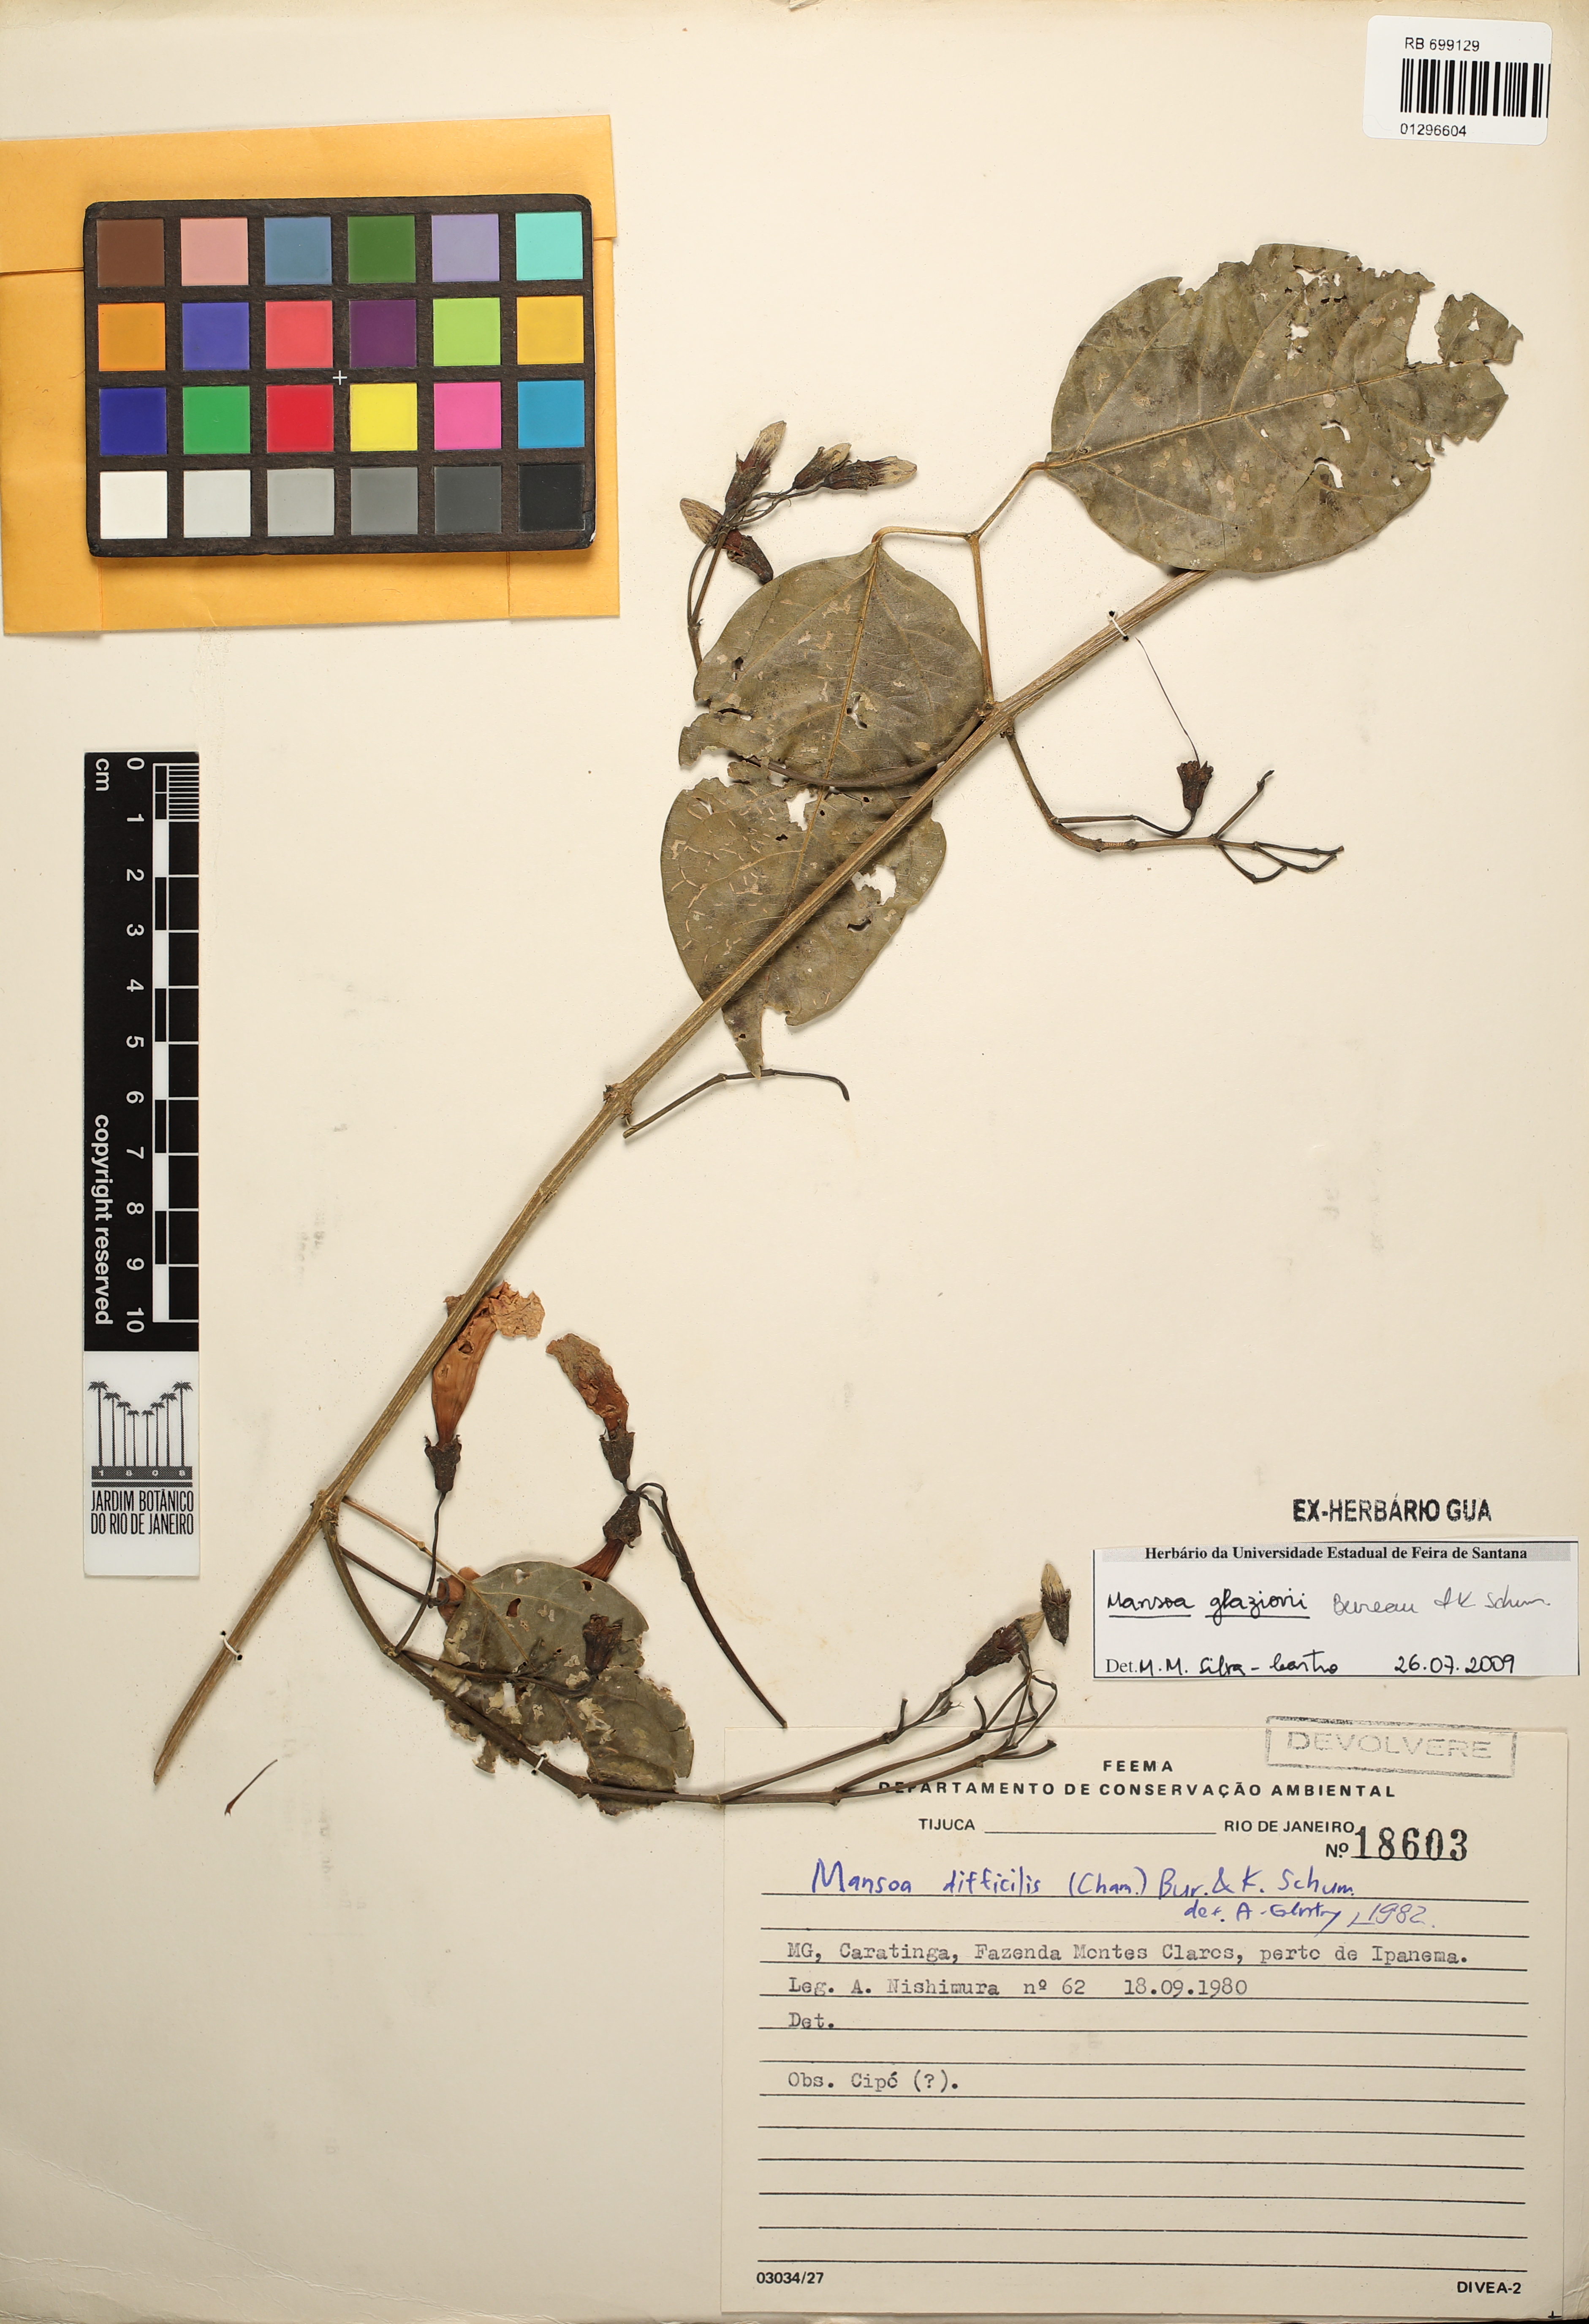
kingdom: Plantae
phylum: Tracheophyta
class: Magnoliopsida
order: Lamiales
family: Bignoniaceae
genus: Mansoa
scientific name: Mansoa glaziovii
